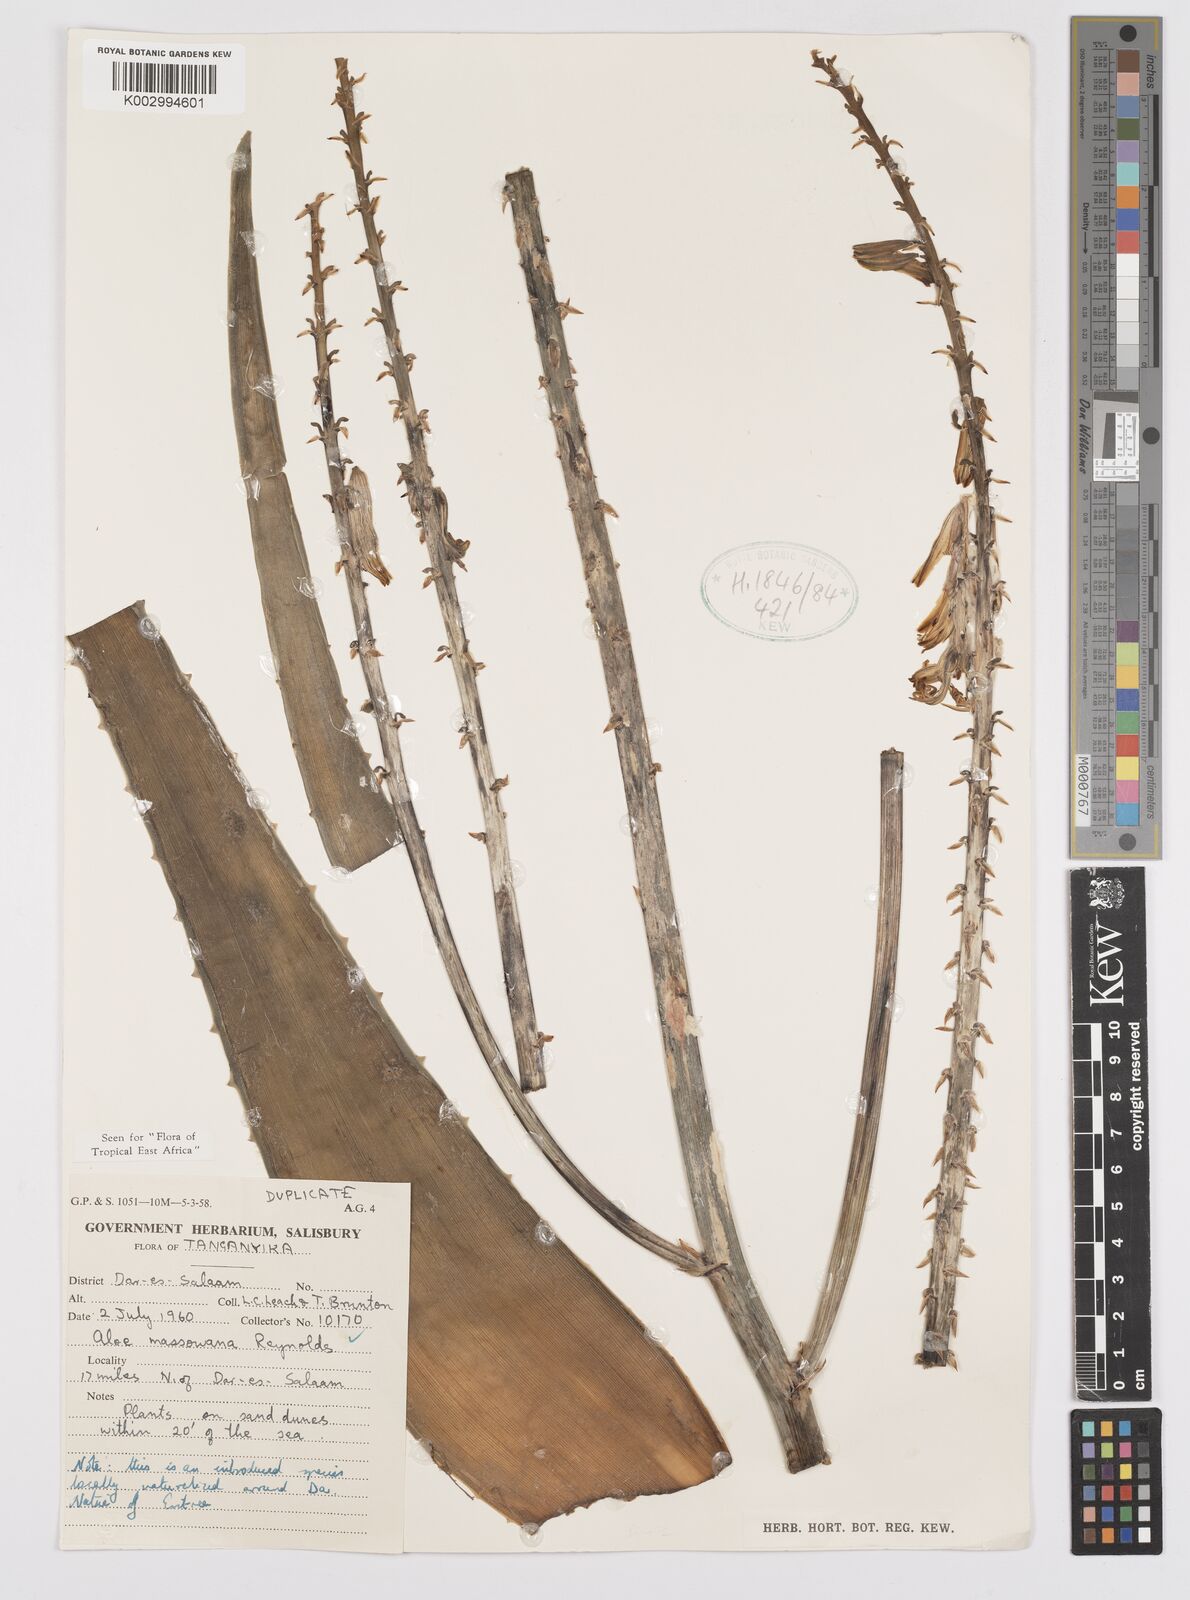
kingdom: Plantae
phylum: Tracheophyta
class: Liliopsida
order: Asparagales
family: Asphodelaceae
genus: Aloe
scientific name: Aloe massawana
